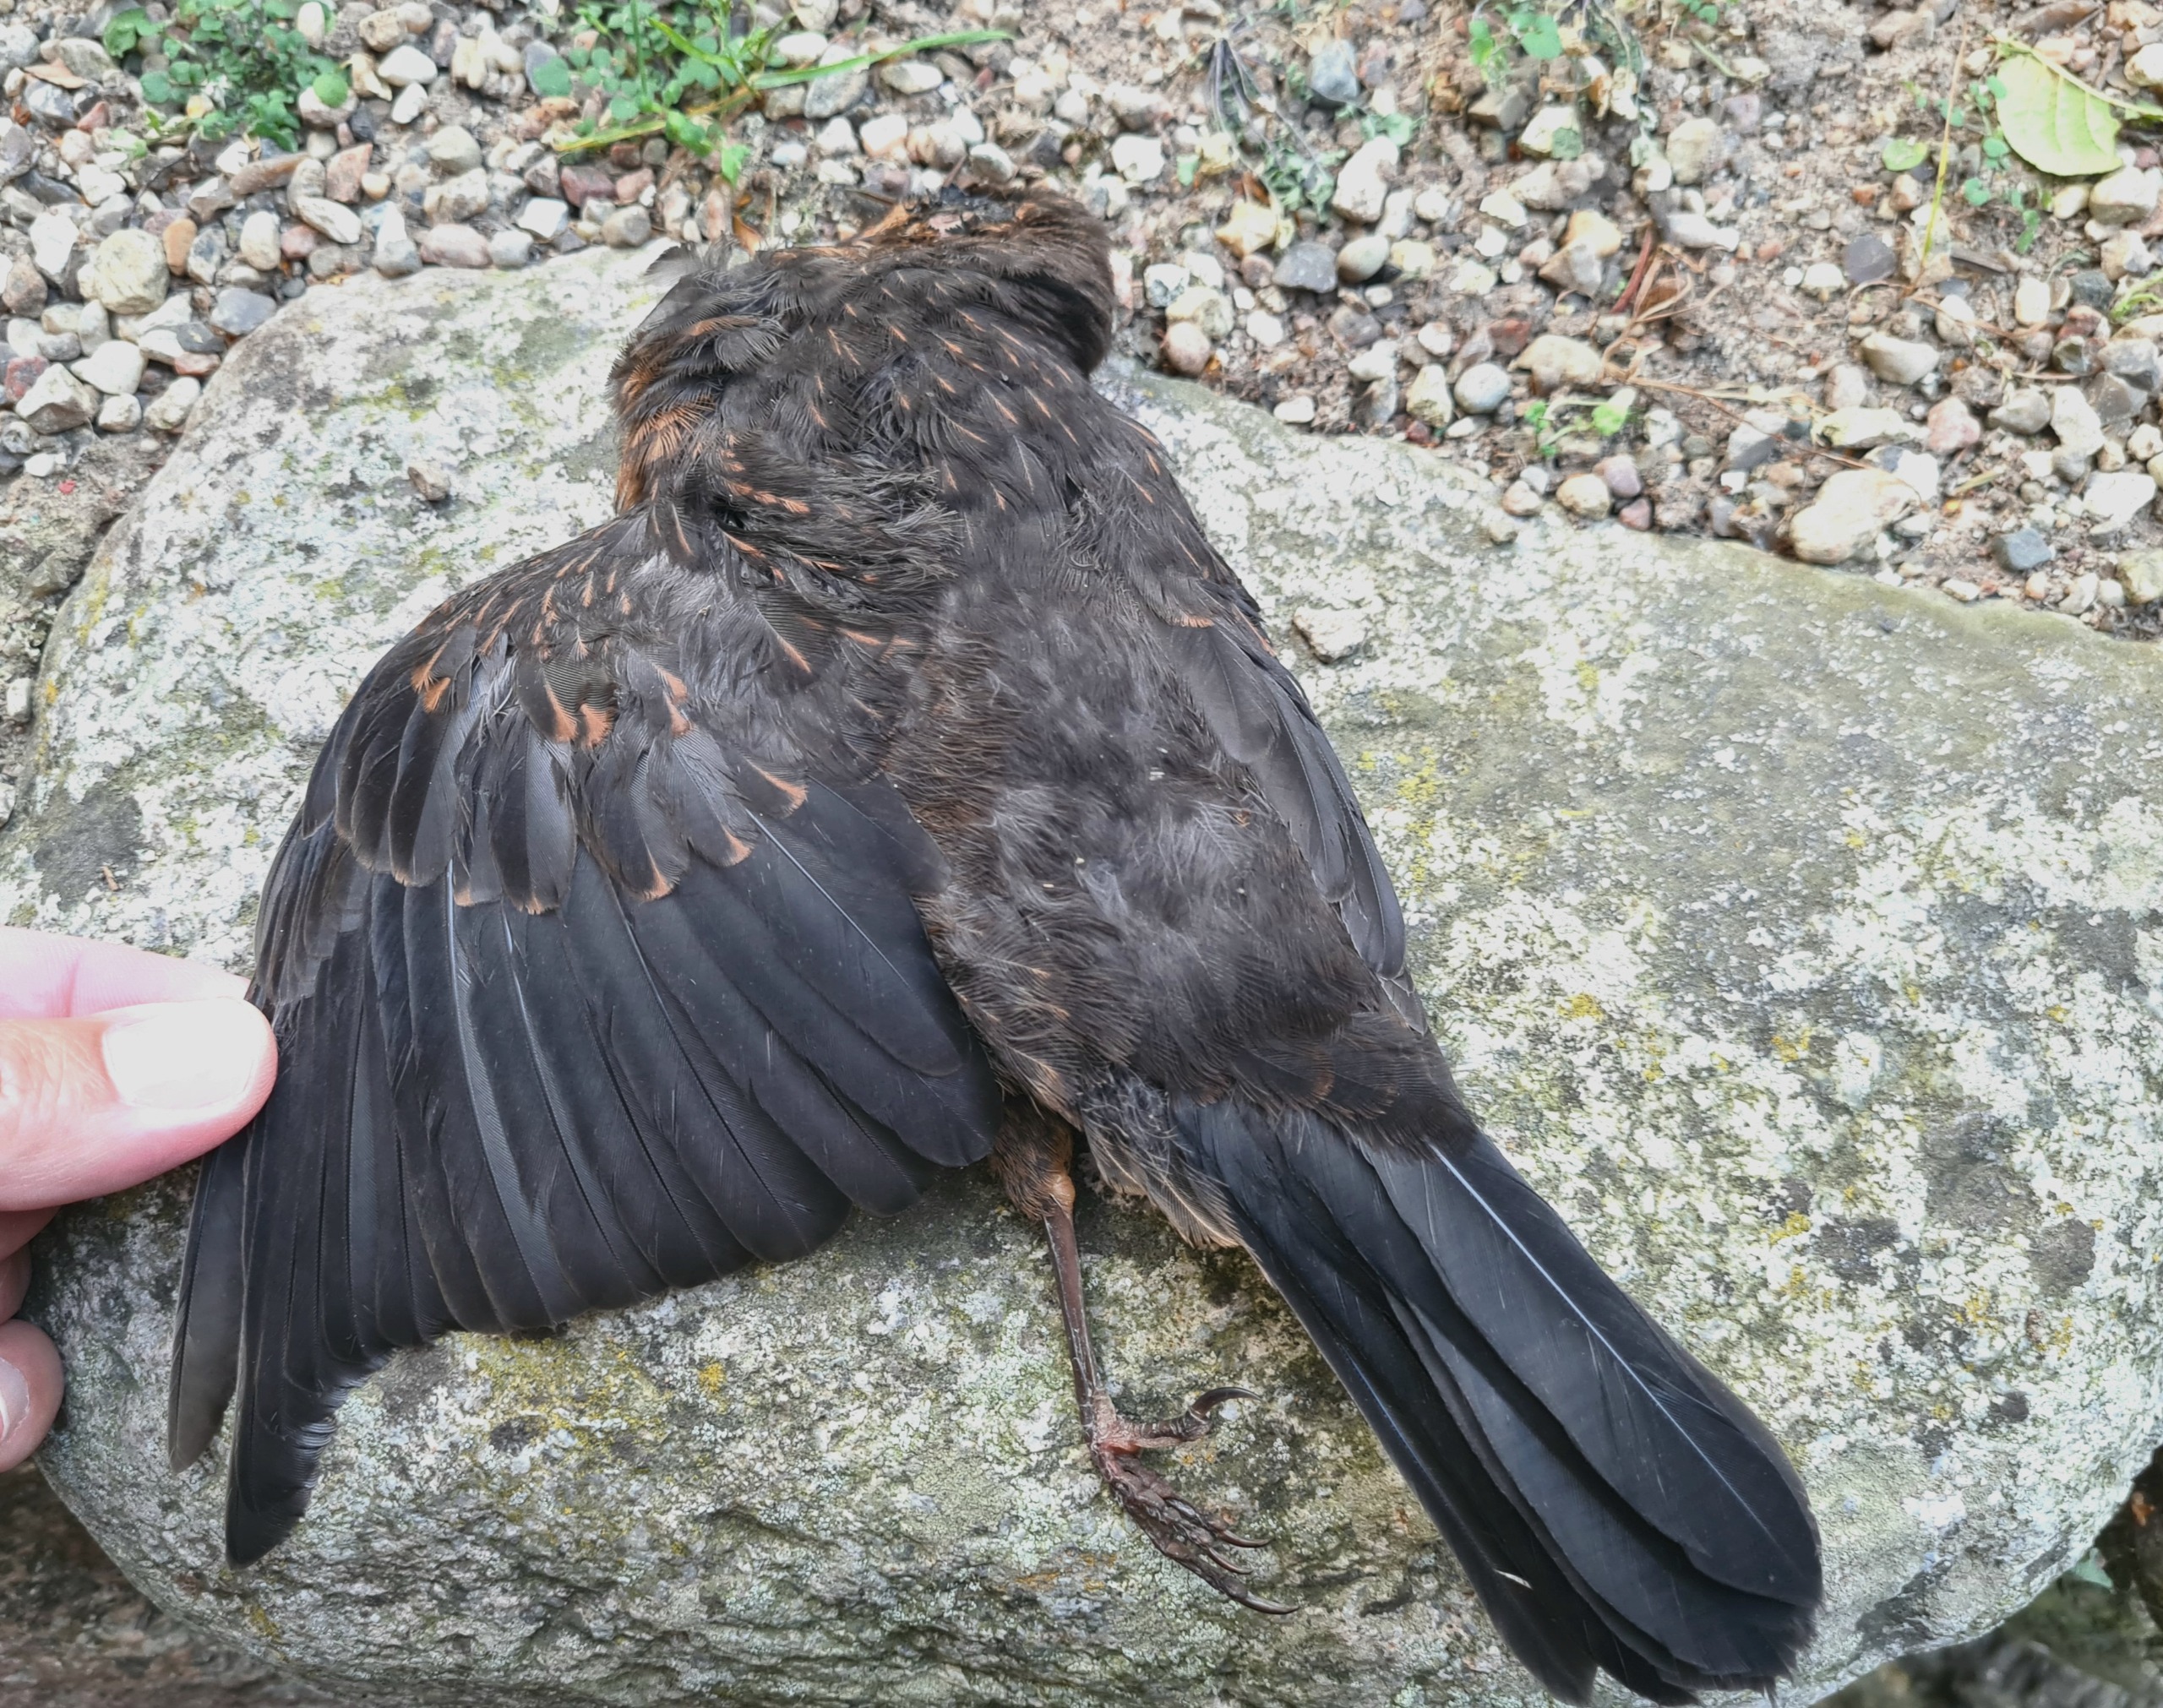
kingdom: Animalia
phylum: Chordata
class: Aves
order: Passeriformes
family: Turdidae
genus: Turdus
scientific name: Turdus merula
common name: Solsort
